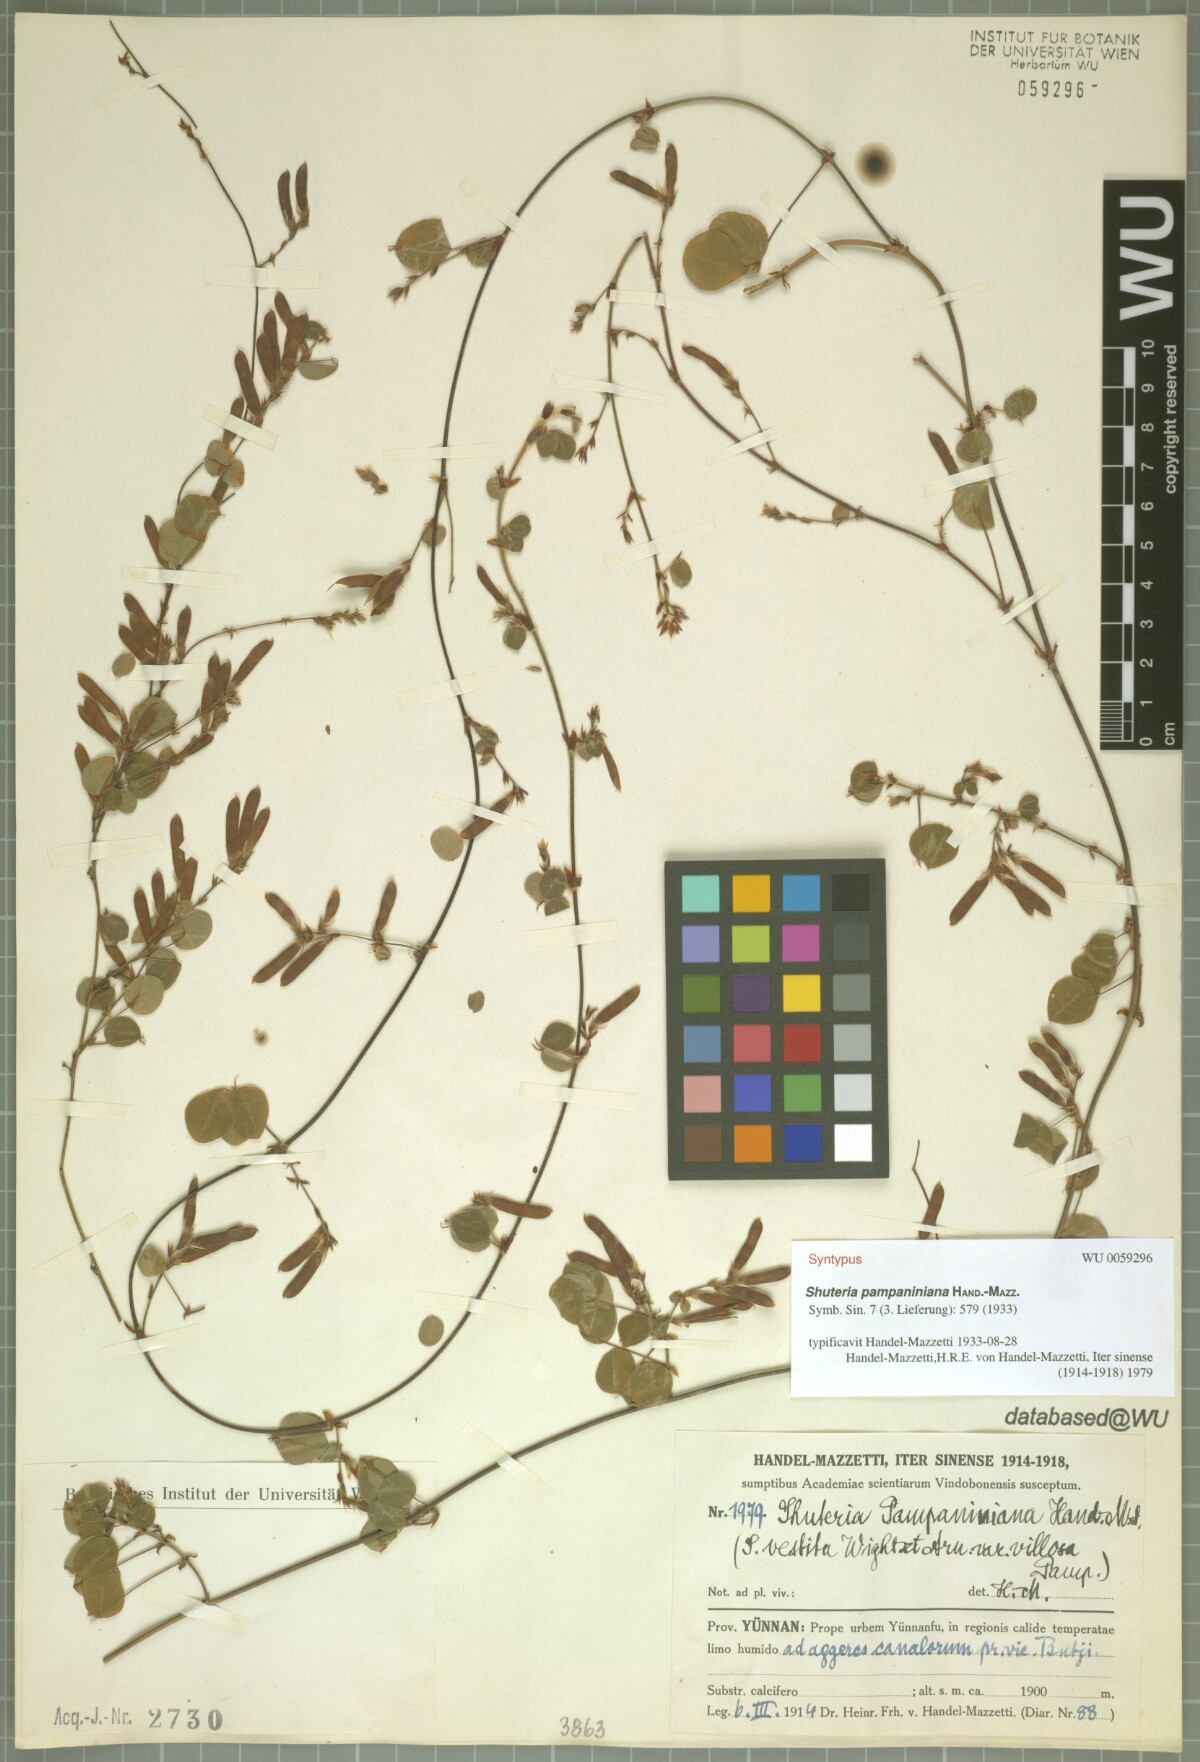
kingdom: Plantae
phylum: Tracheophyta
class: Magnoliopsida
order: Fabales
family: Fabaceae
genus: Shuteria
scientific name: Shuteria vestita
